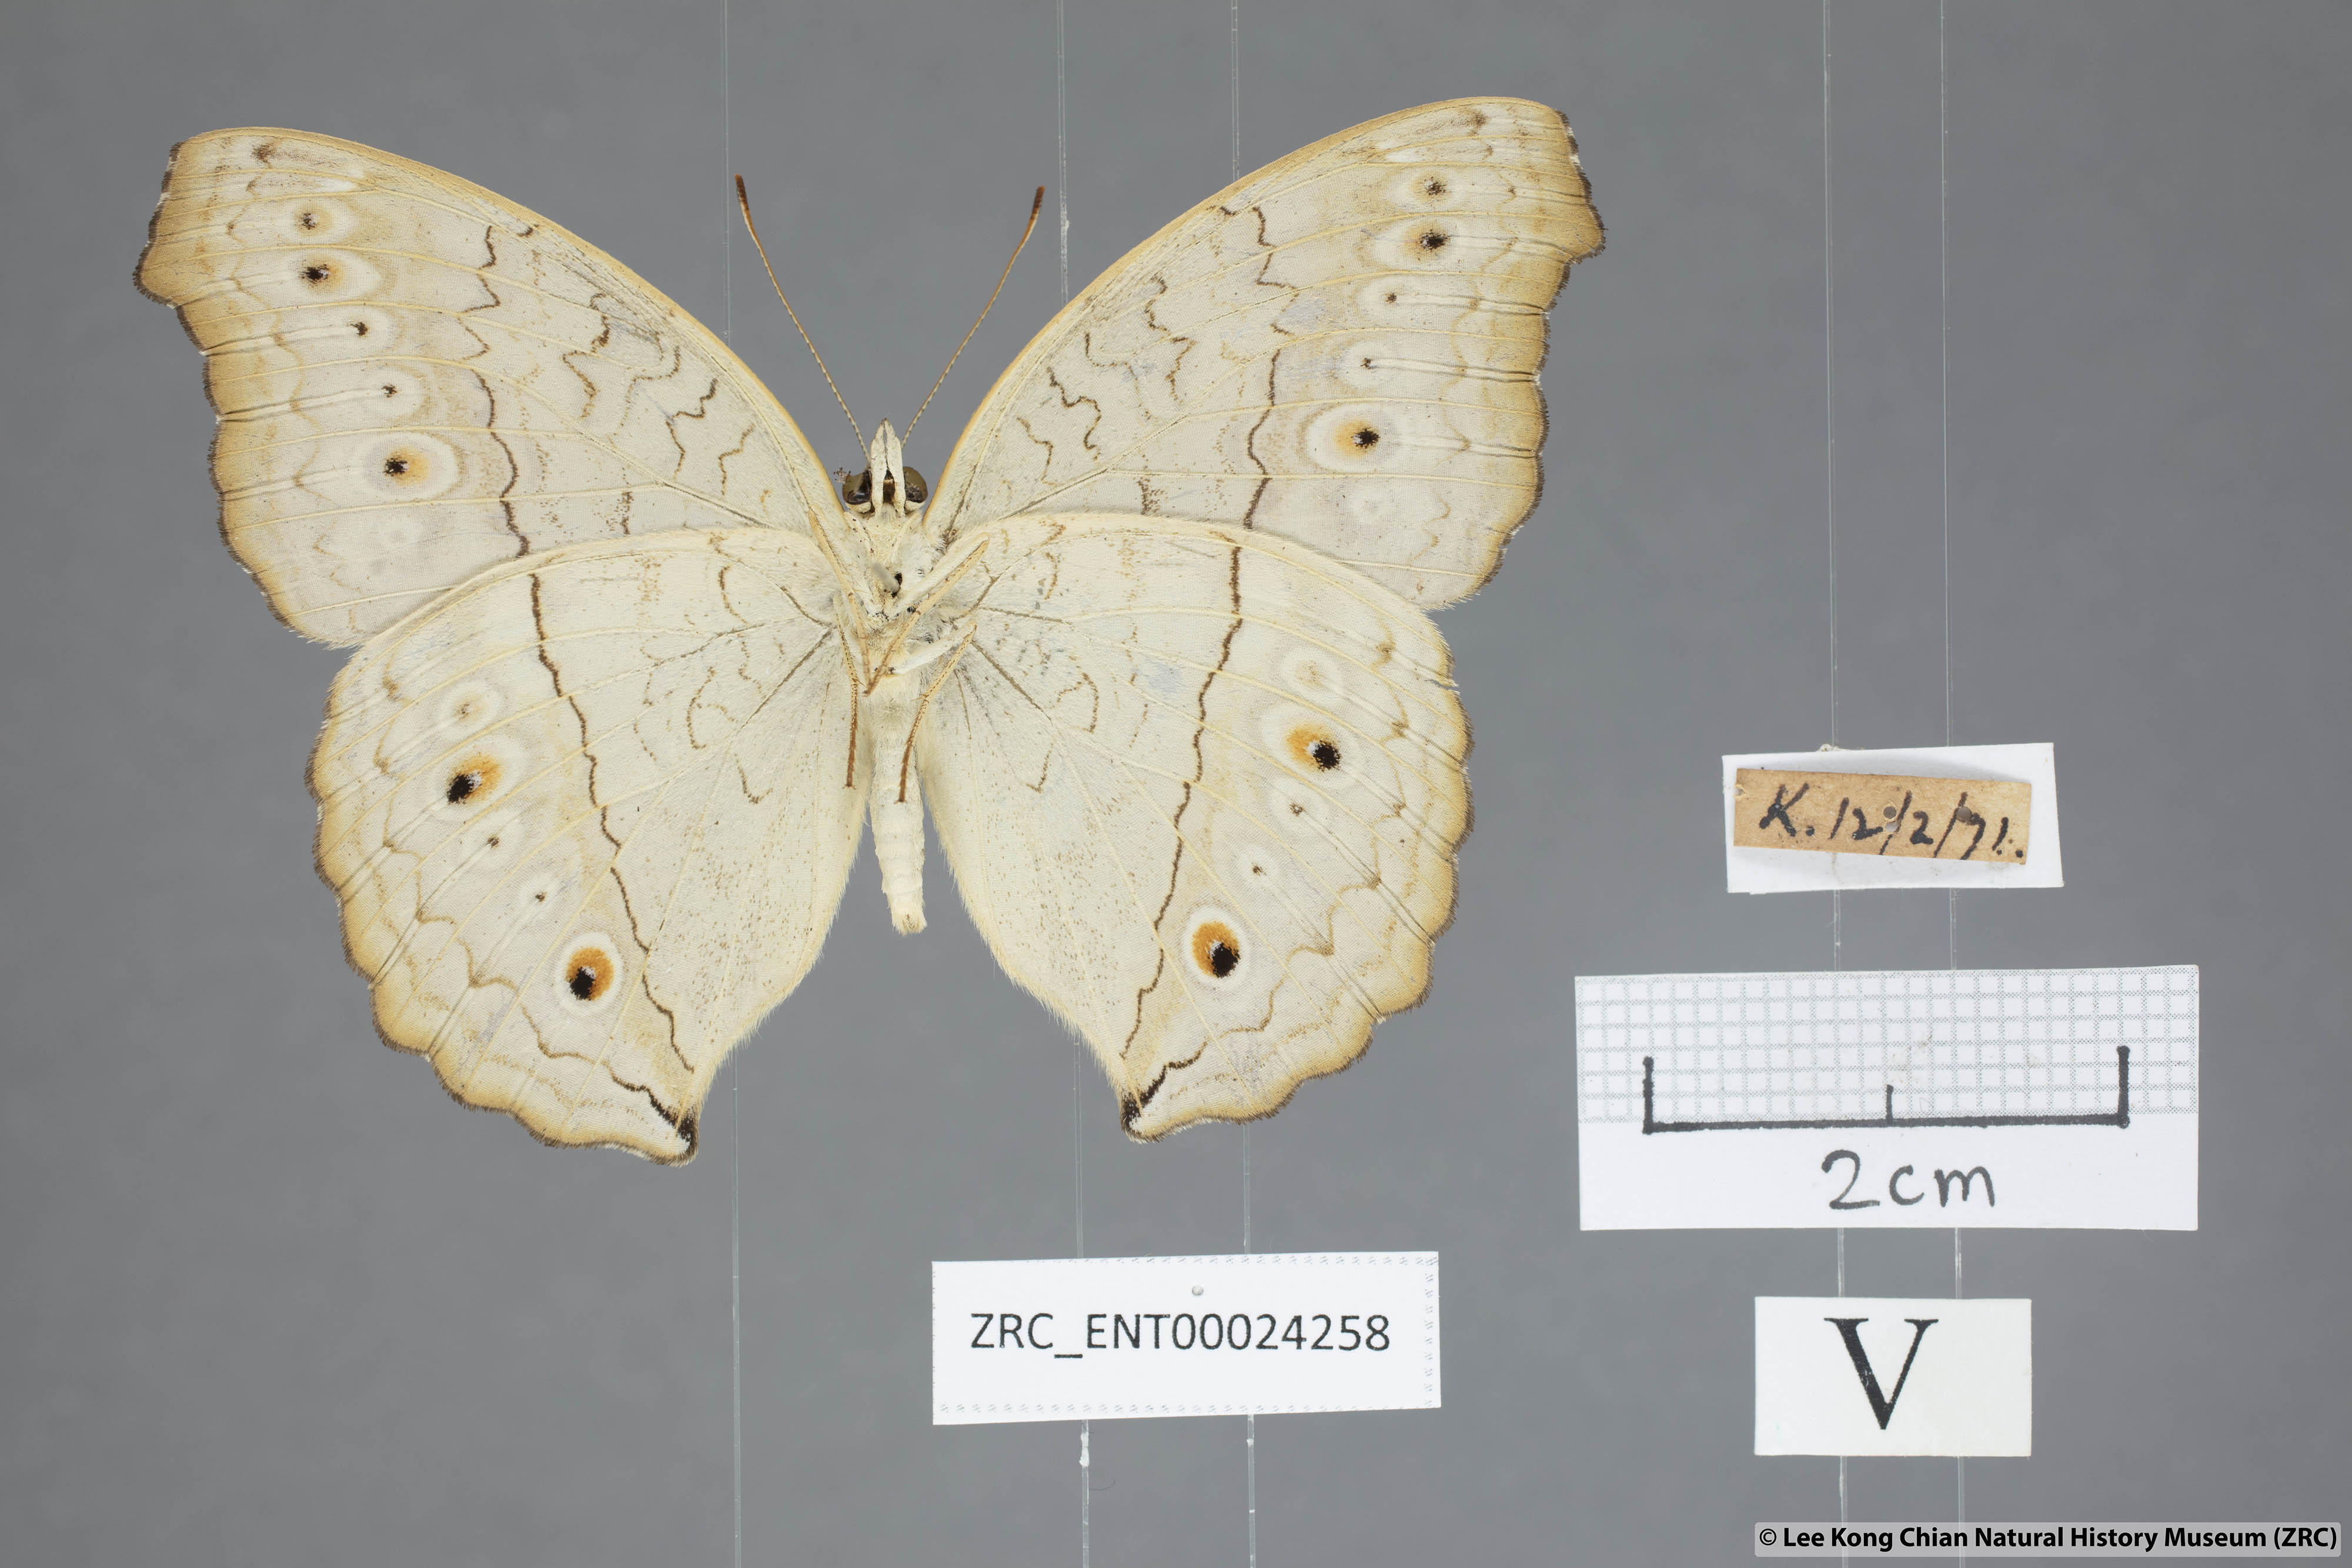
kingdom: Animalia
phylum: Arthropoda
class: Insecta
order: Lepidoptera
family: Nymphalidae
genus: Junonia
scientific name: Junonia atlites
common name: Grey pansy
